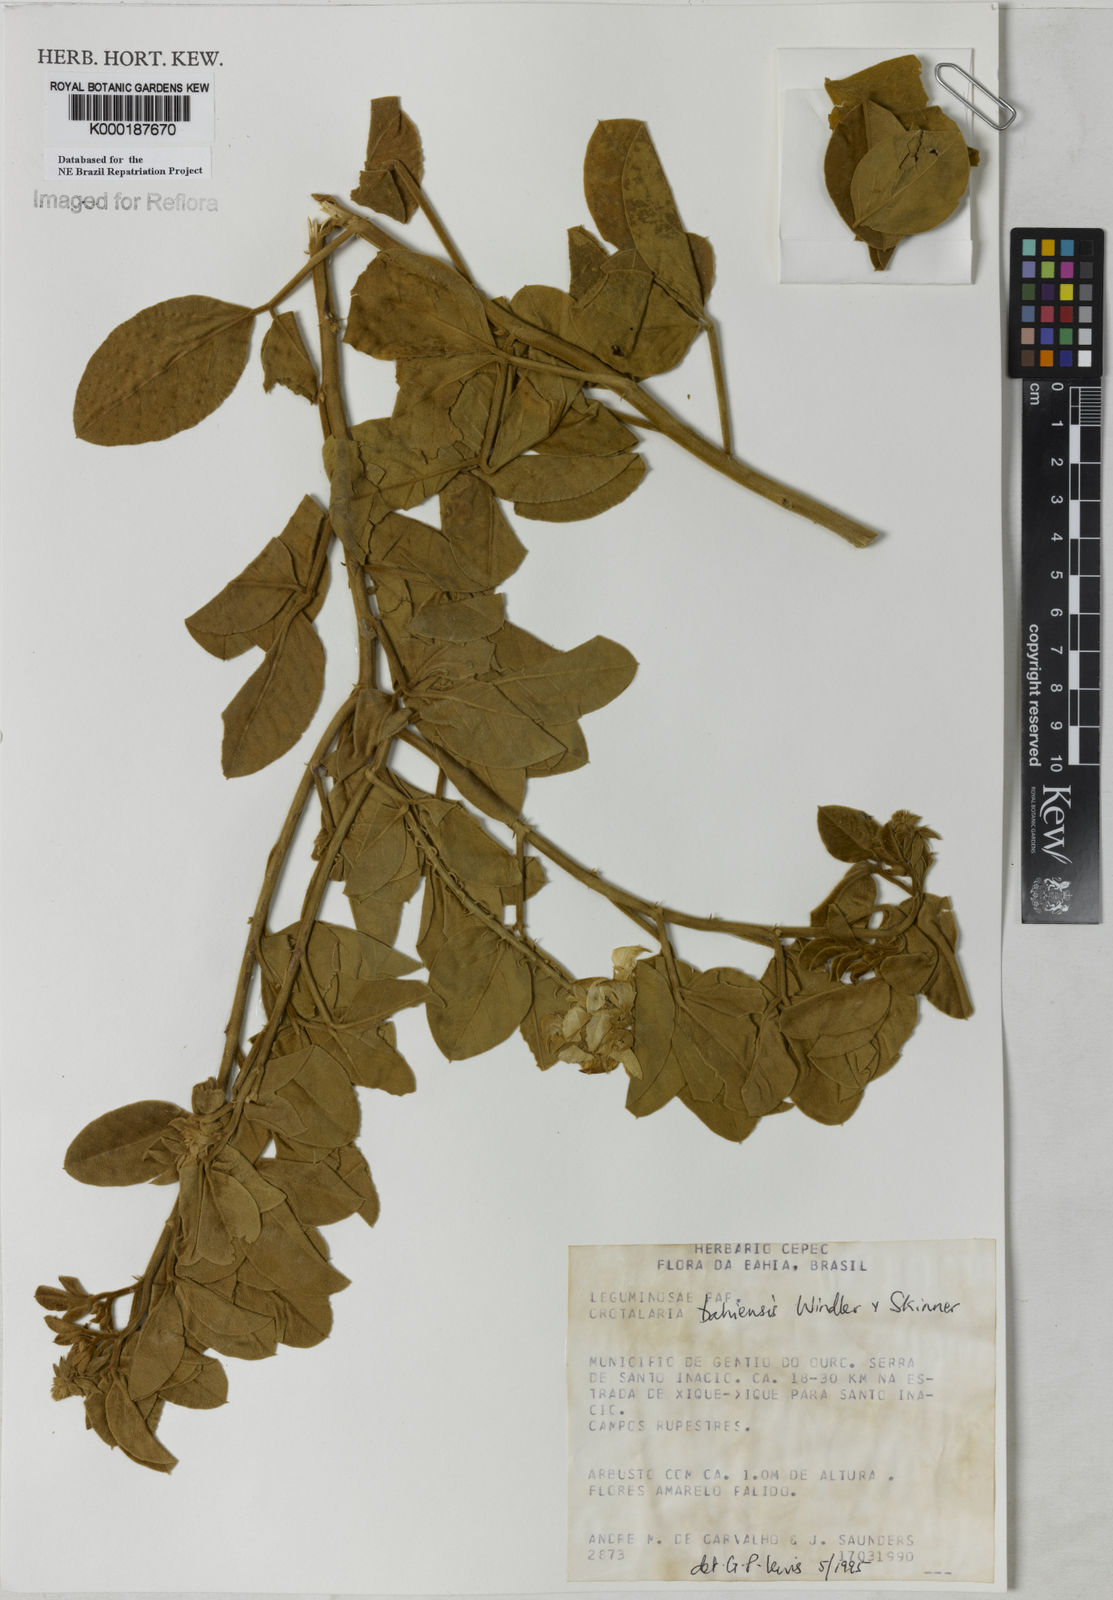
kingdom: Plantae
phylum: Tracheophyta
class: Magnoliopsida
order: Fabales
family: Fabaceae
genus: Crotalaria
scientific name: Crotalaria
